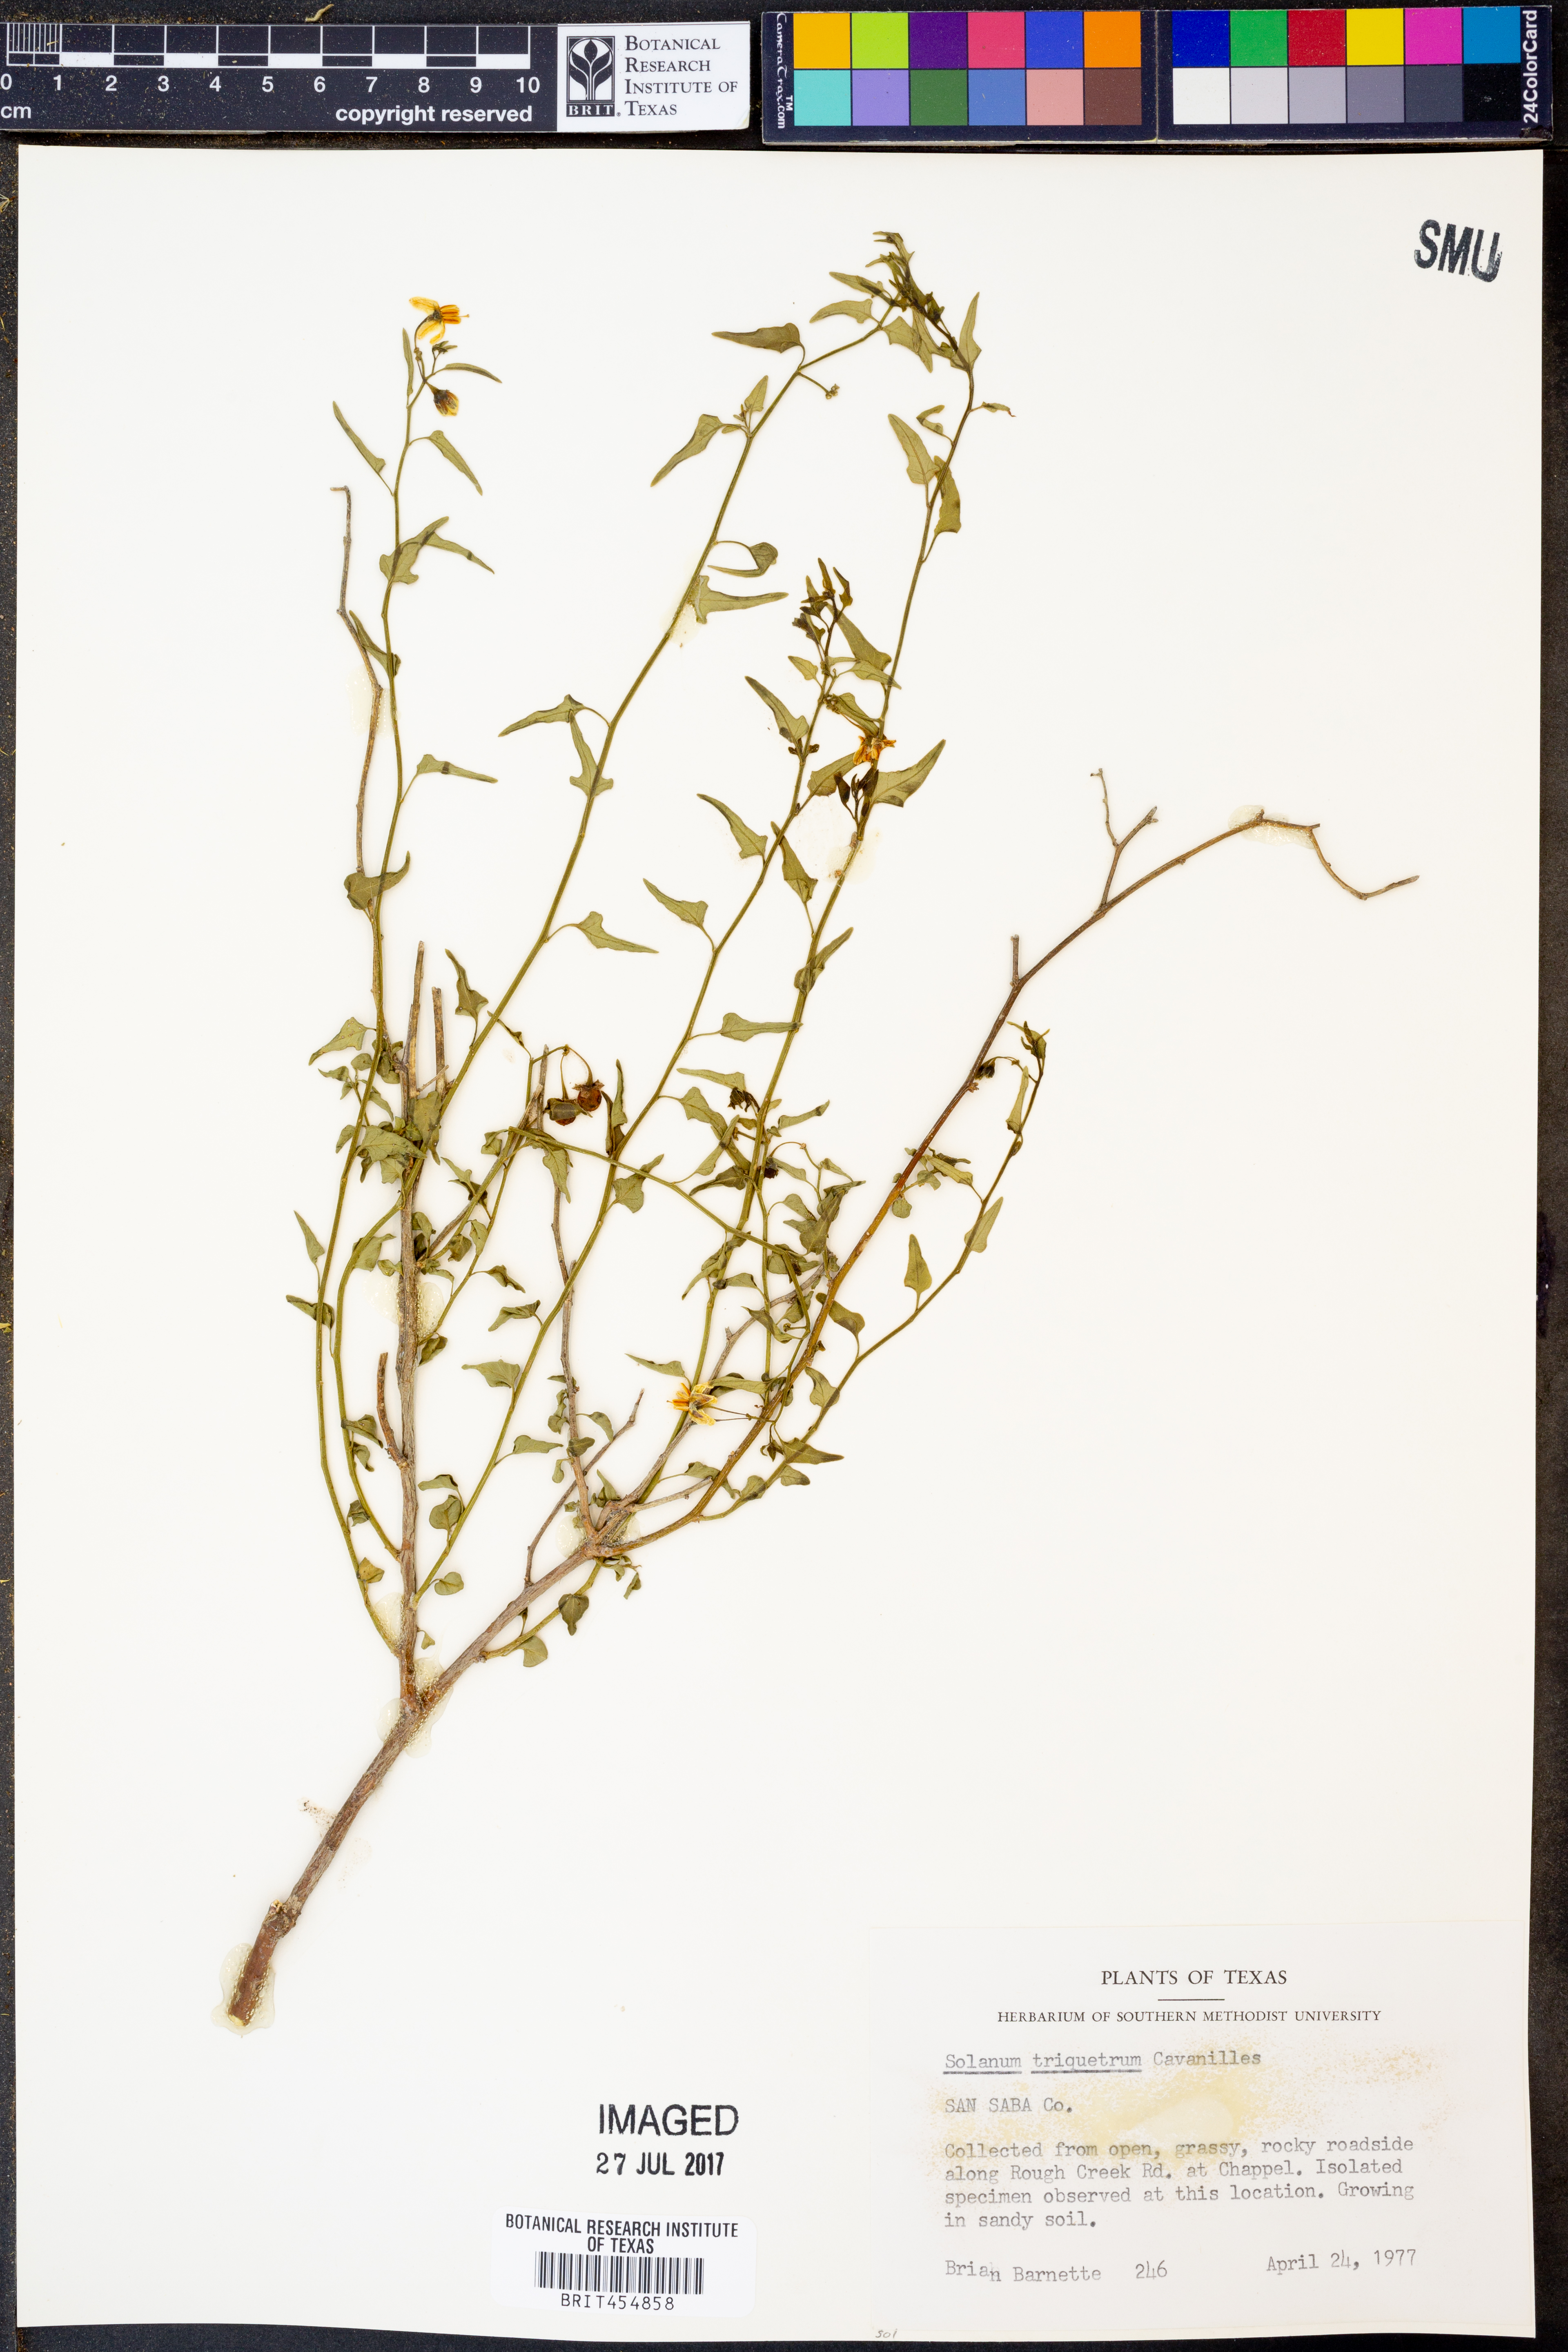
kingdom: Plantae
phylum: Tracheophyta
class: Magnoliopsida
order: Solanales
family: Solanaceae
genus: Solanum
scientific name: Solanum triquetrum
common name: Texas nightshade
